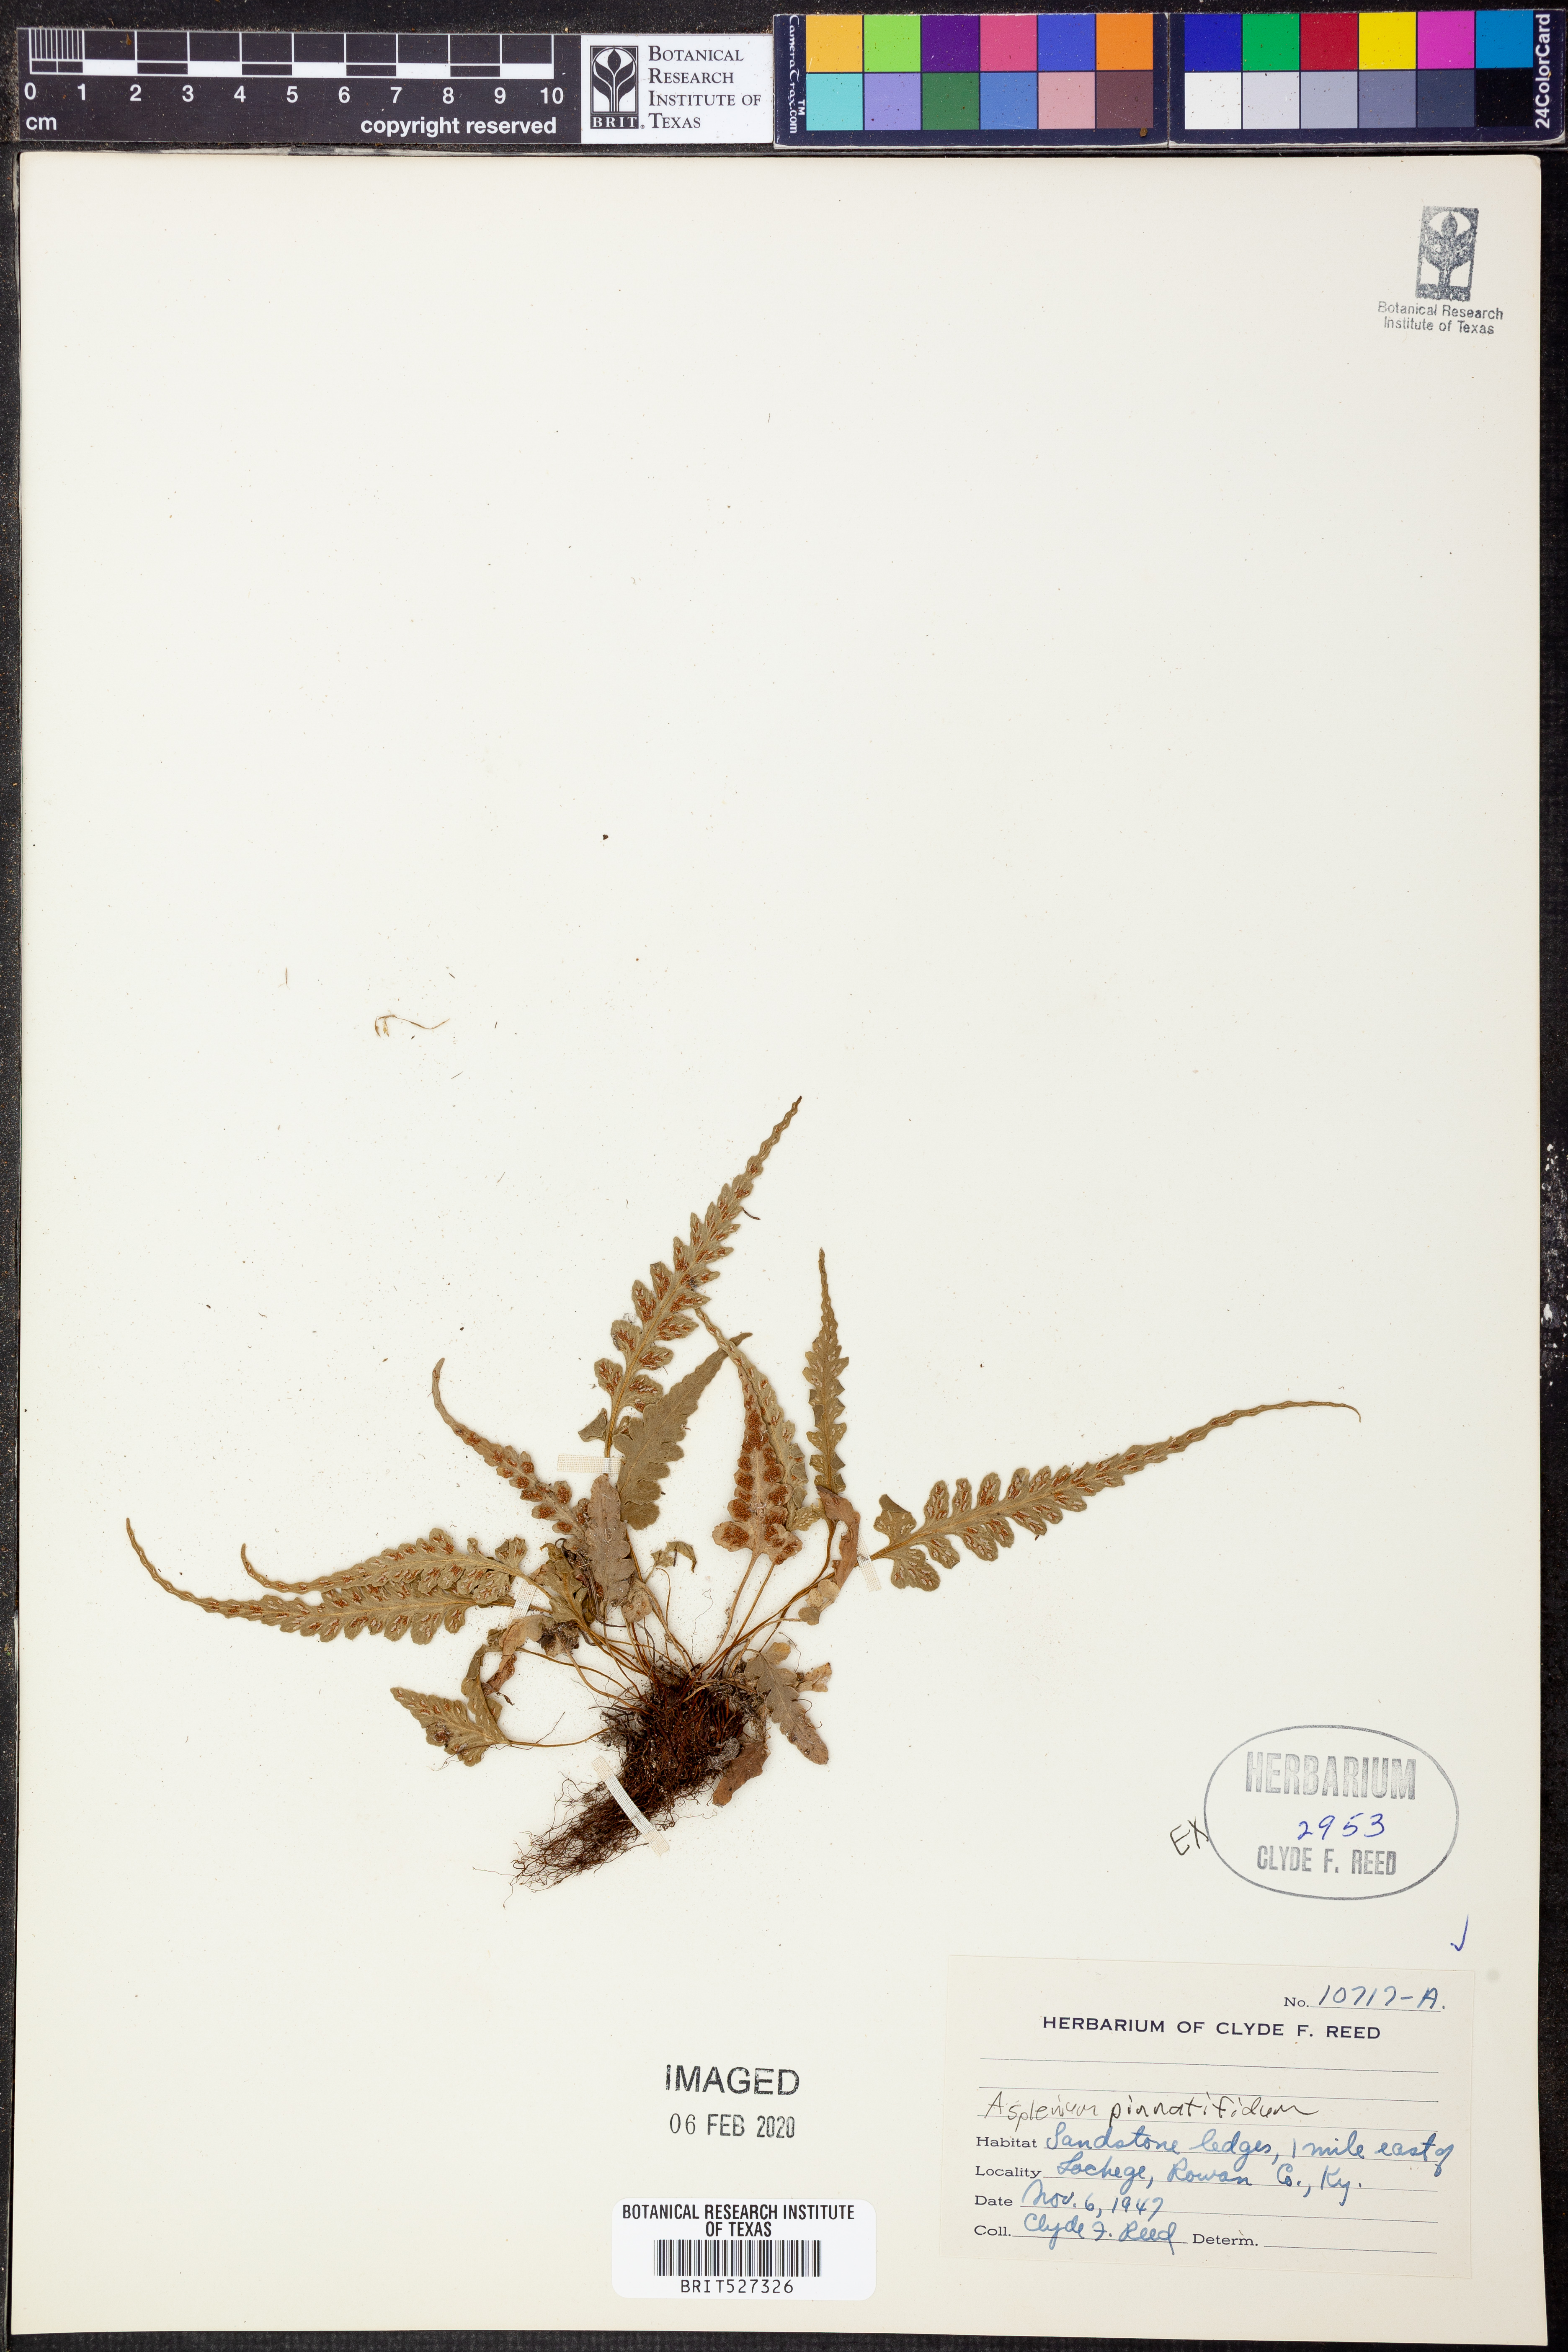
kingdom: Plantae
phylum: Tracheophyta
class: Polypodiopsida
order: Polypodiales
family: Aspleniaceae
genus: Asplenium
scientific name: Asplenium pinnatifidum
